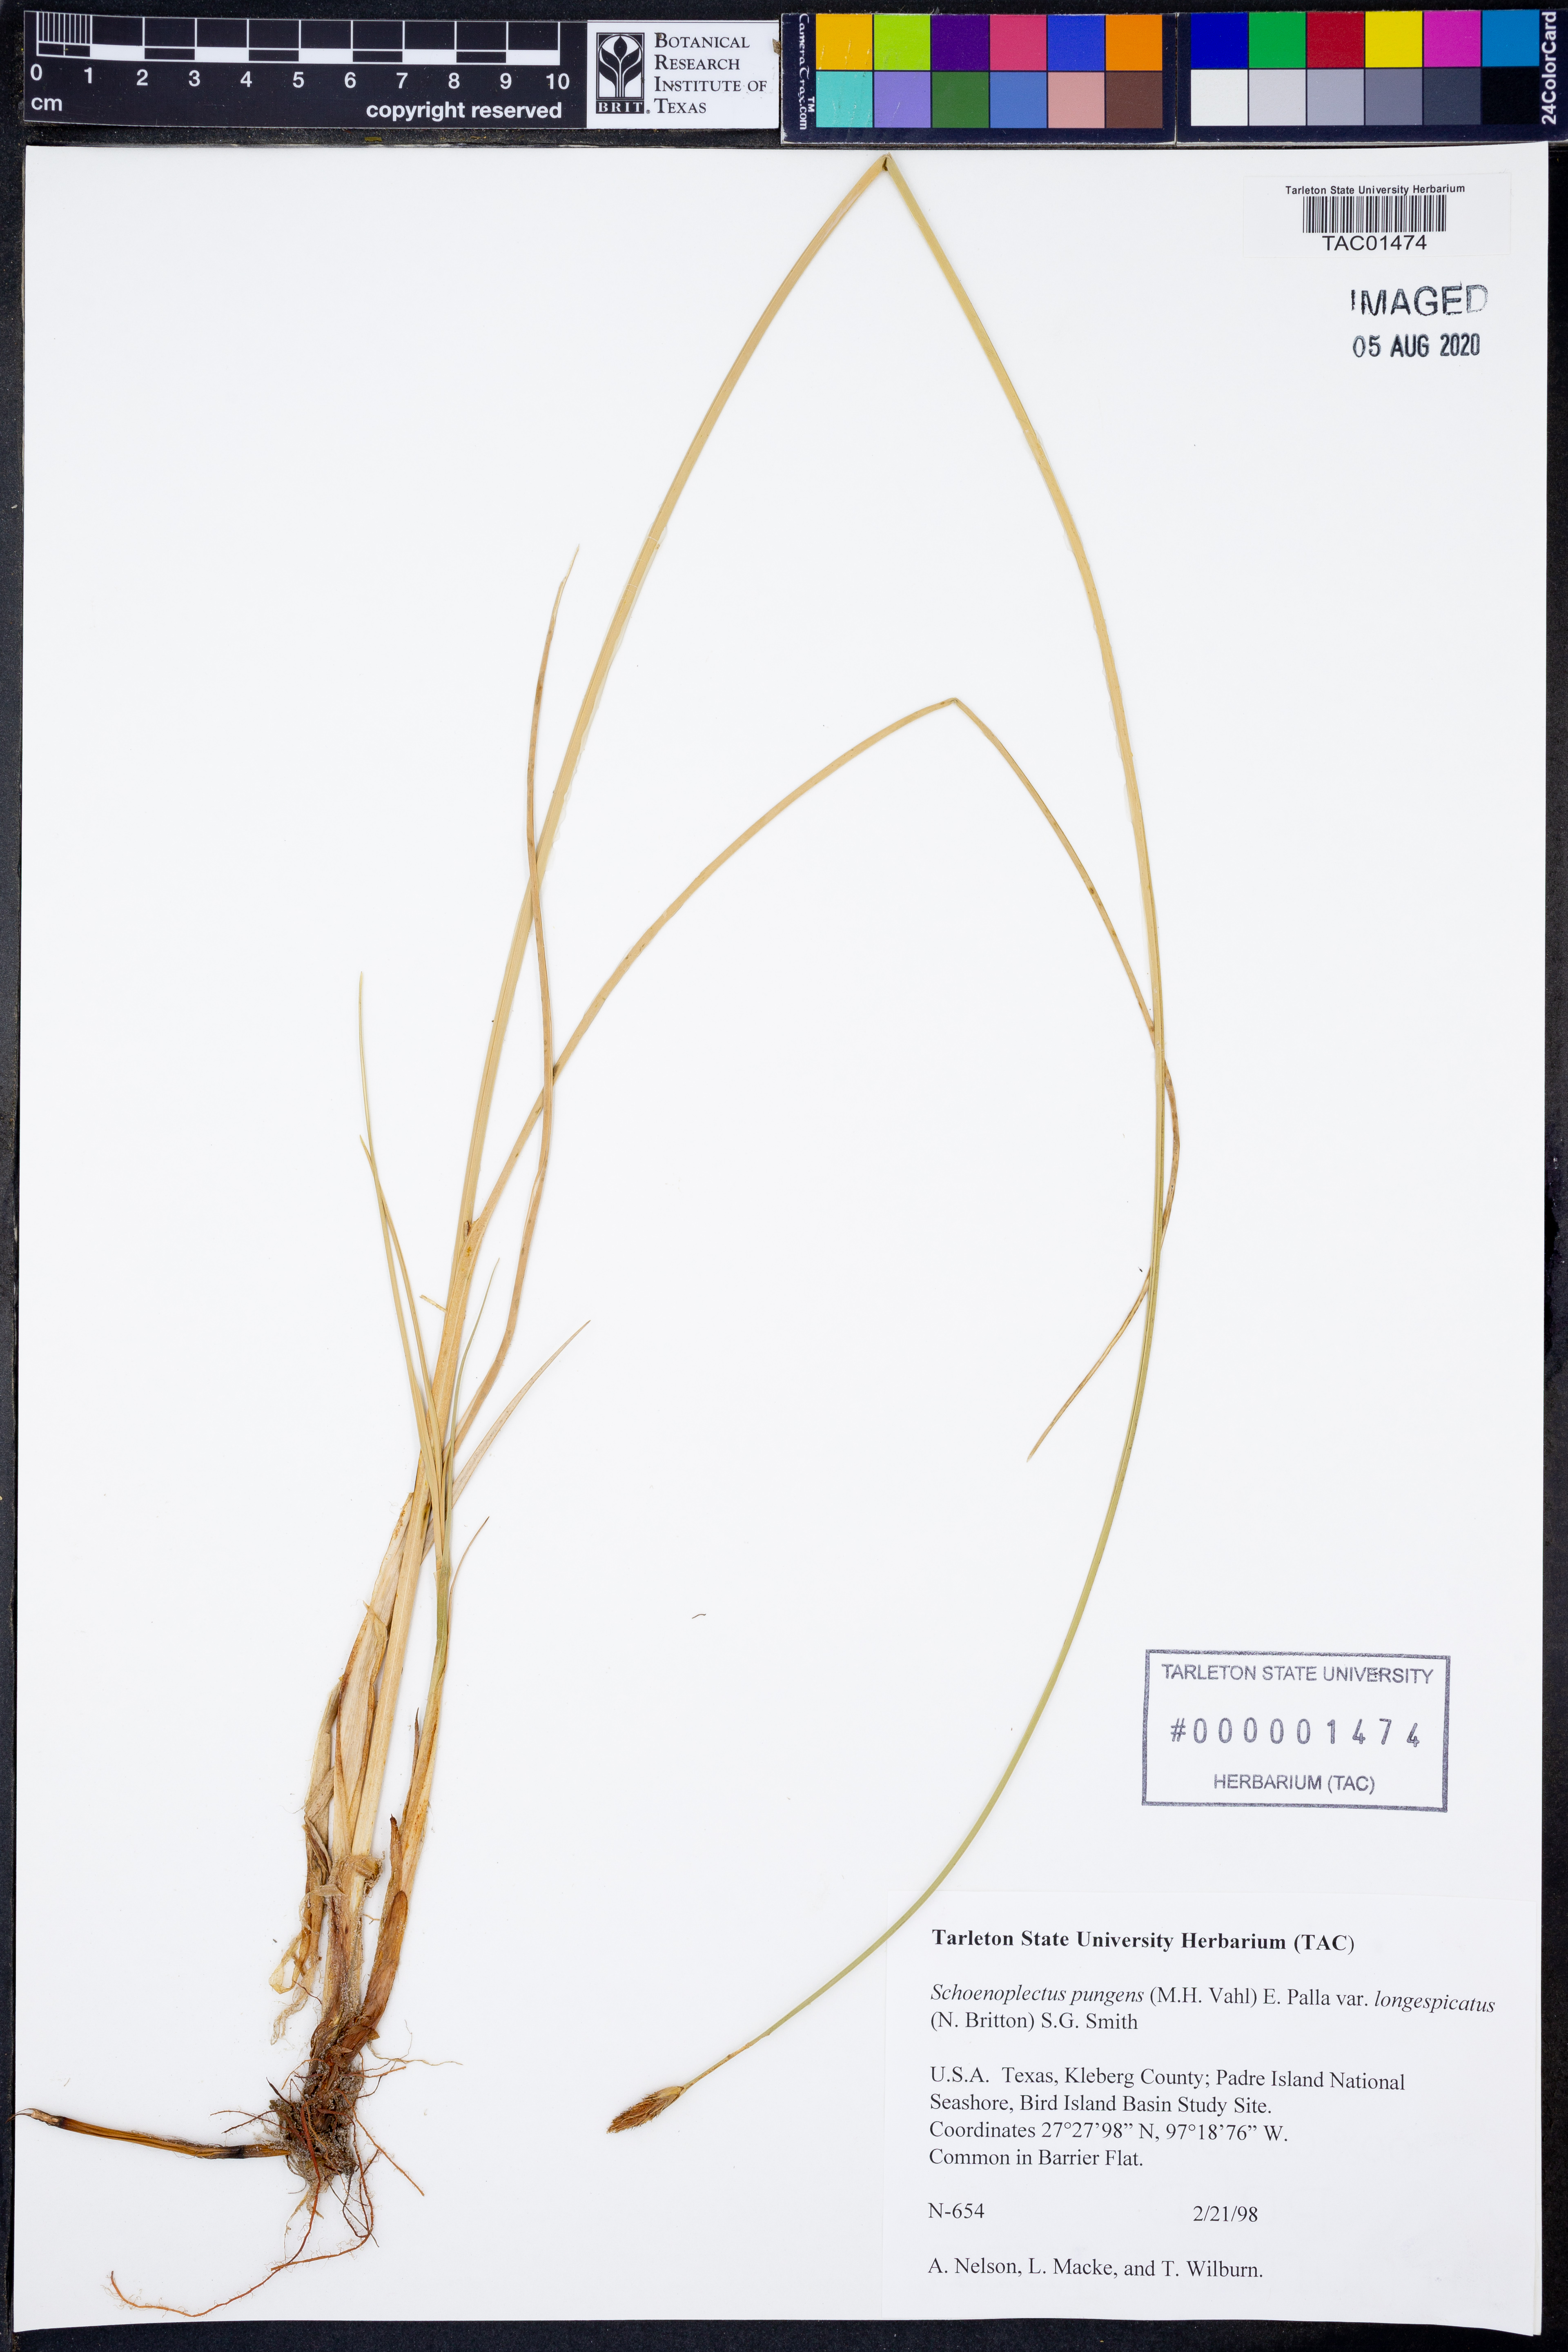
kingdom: Plantae
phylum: Tracheophyta
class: Liliopsida
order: Poales
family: Cyperaceae
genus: Schoenoplectus
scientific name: Schoenoplectus pungens
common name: Sharp club-rush
